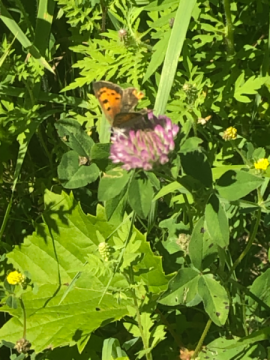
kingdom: Animalia
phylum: Arthropoda
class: Insecta
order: Lepidoptera
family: Lycaenidae
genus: Lycaena
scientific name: Lycaena phlaeas
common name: American Copper
